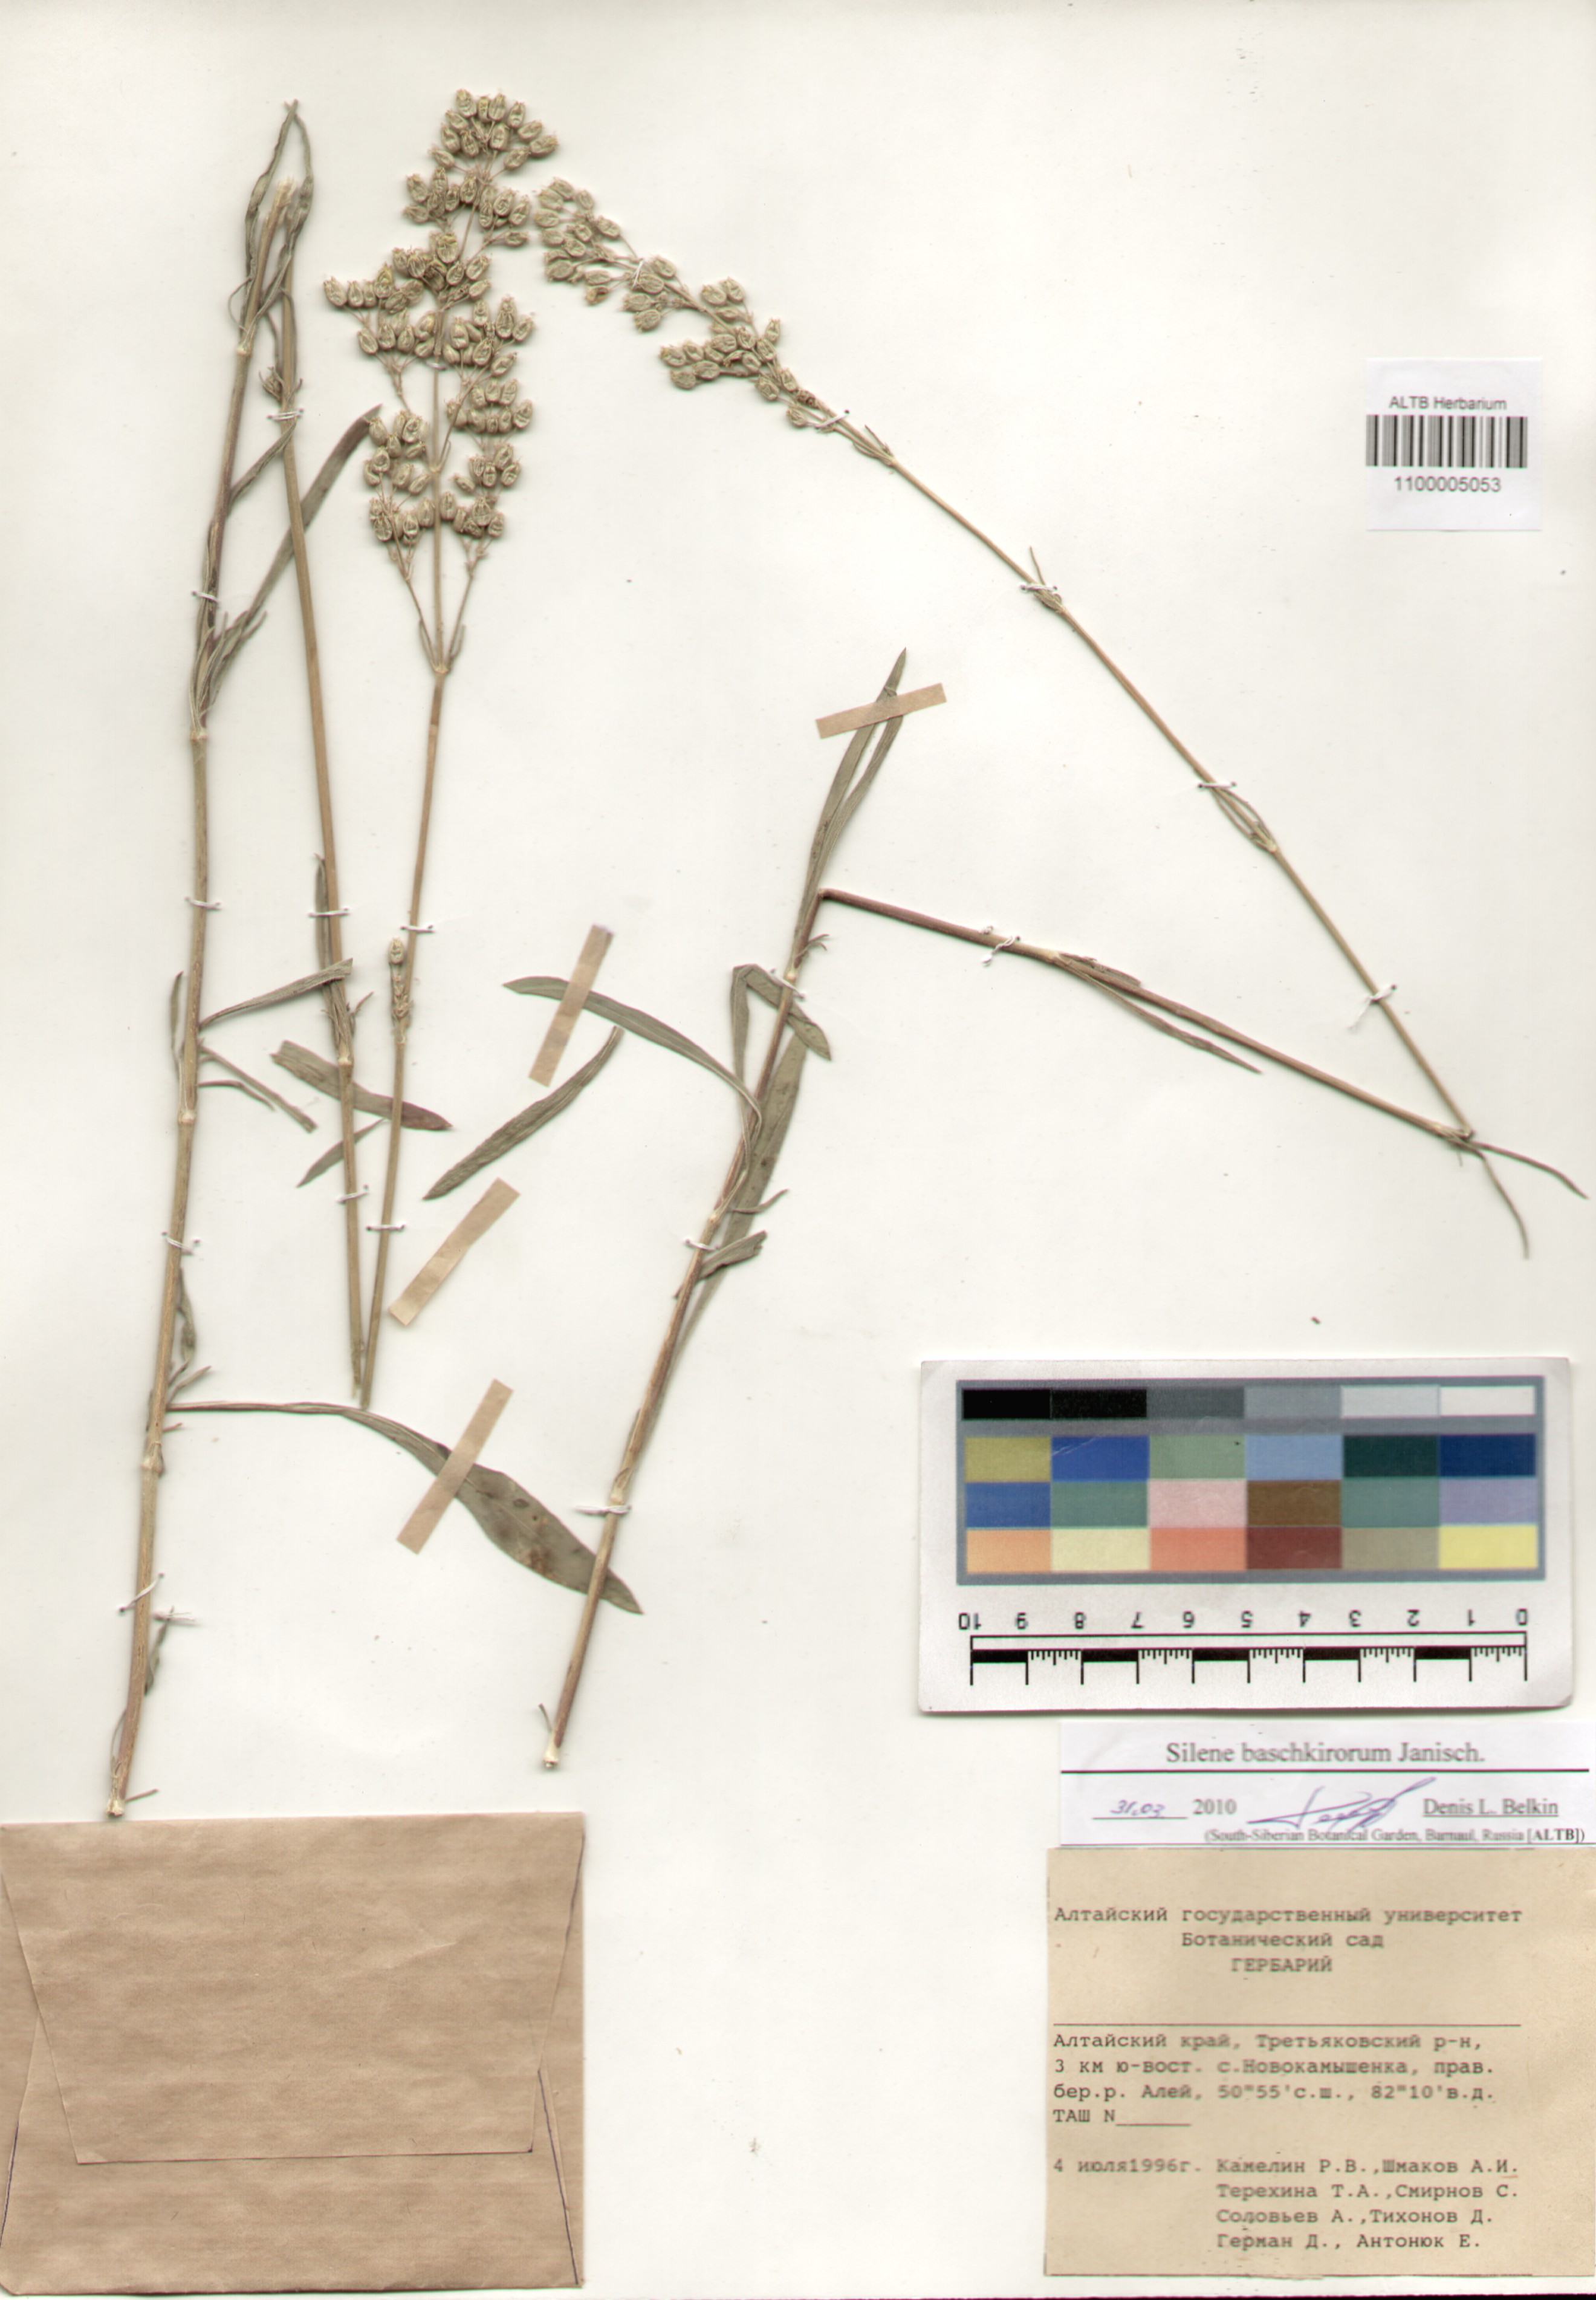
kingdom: Plantae
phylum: Tracheophyta
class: Magnoliopsida
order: Caryophyllales
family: Caryophyllaceae
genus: Silene
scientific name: Silene baschkirorum
